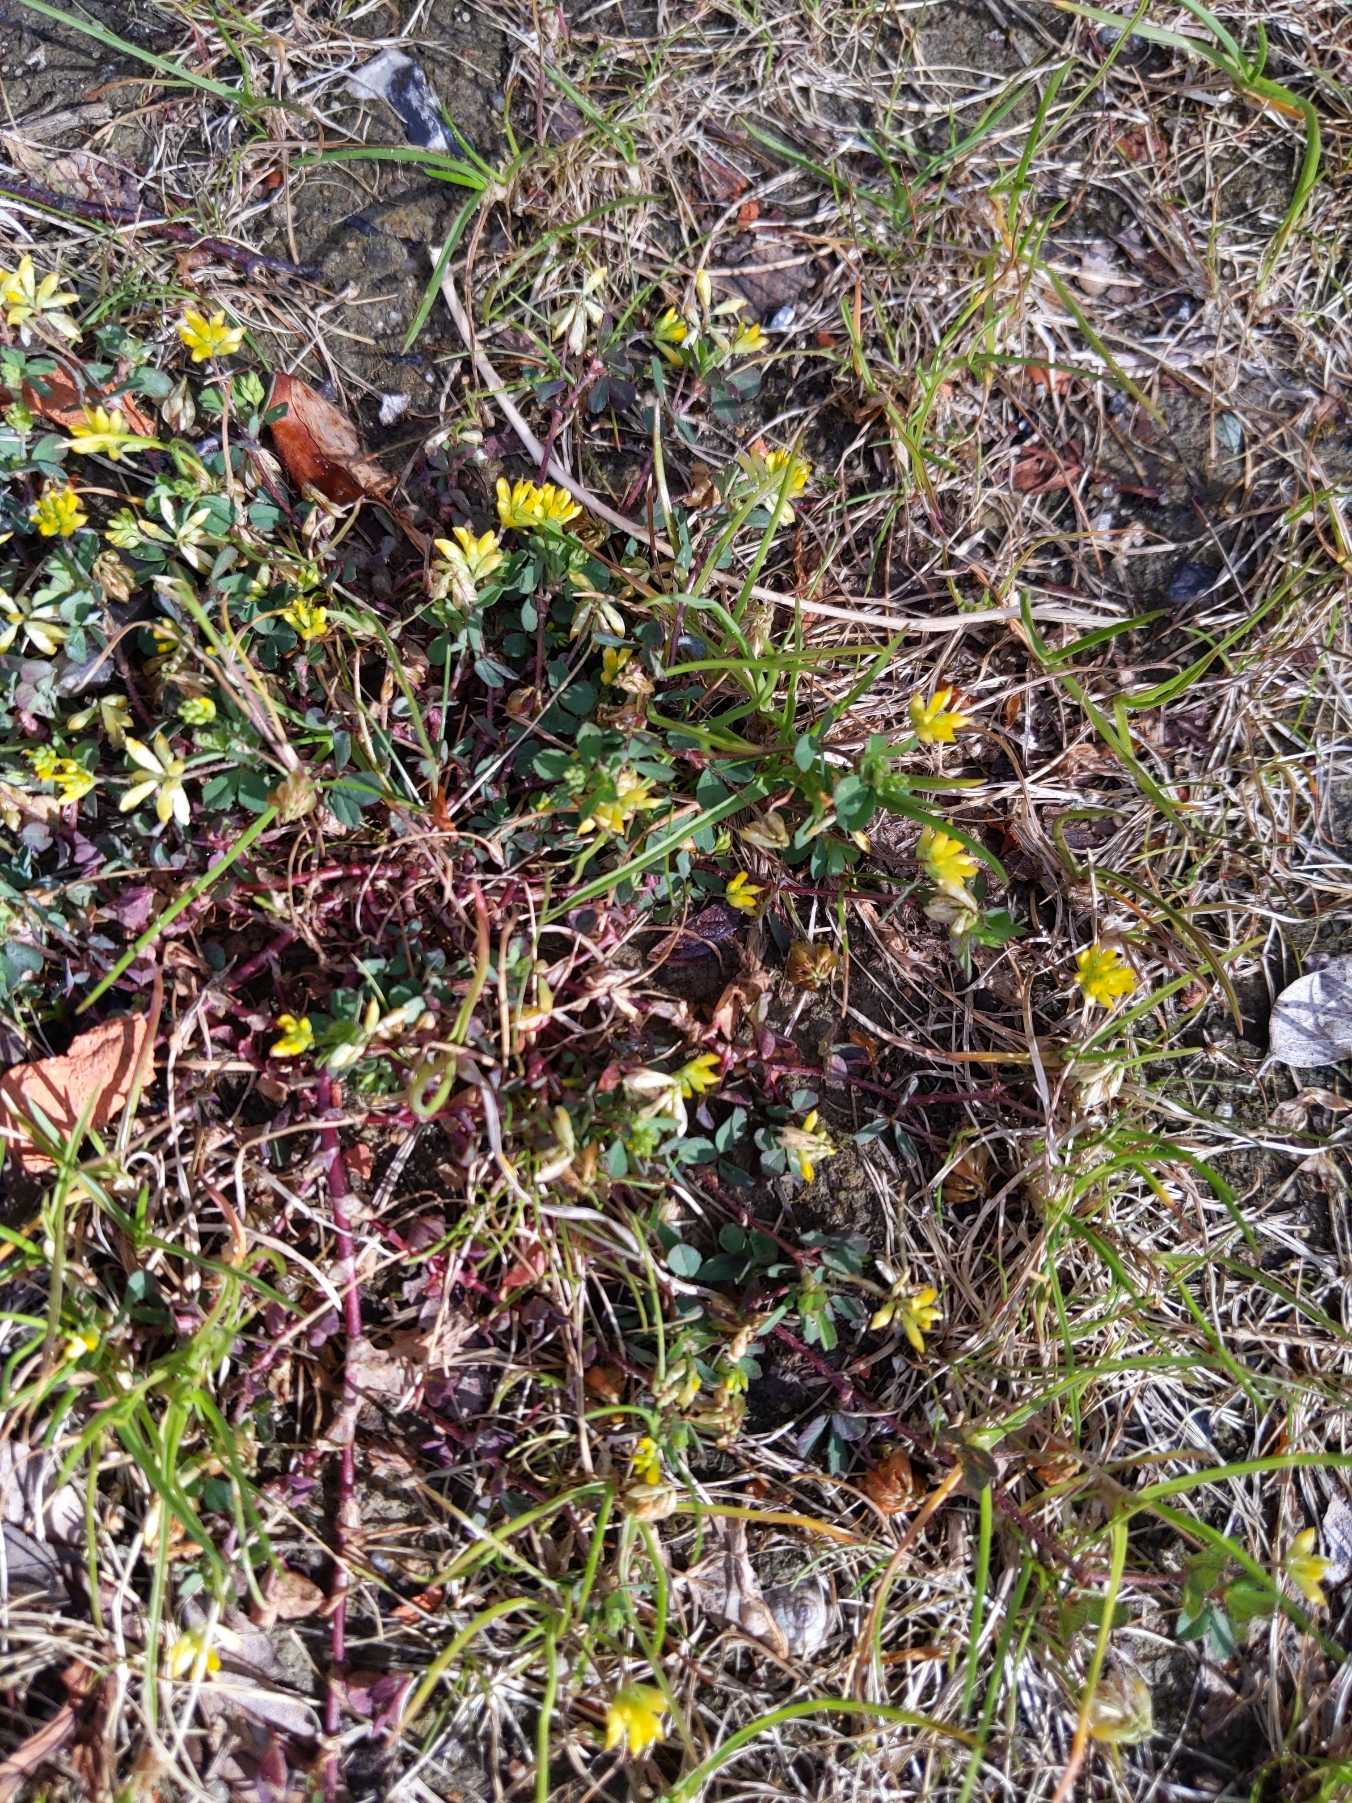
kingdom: Plantae
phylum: Tracheophyta
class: Magnoliopsida
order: Fabales
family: Fabaceae
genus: Trifolium
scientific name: Trifolium dubium
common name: Fin kløver
